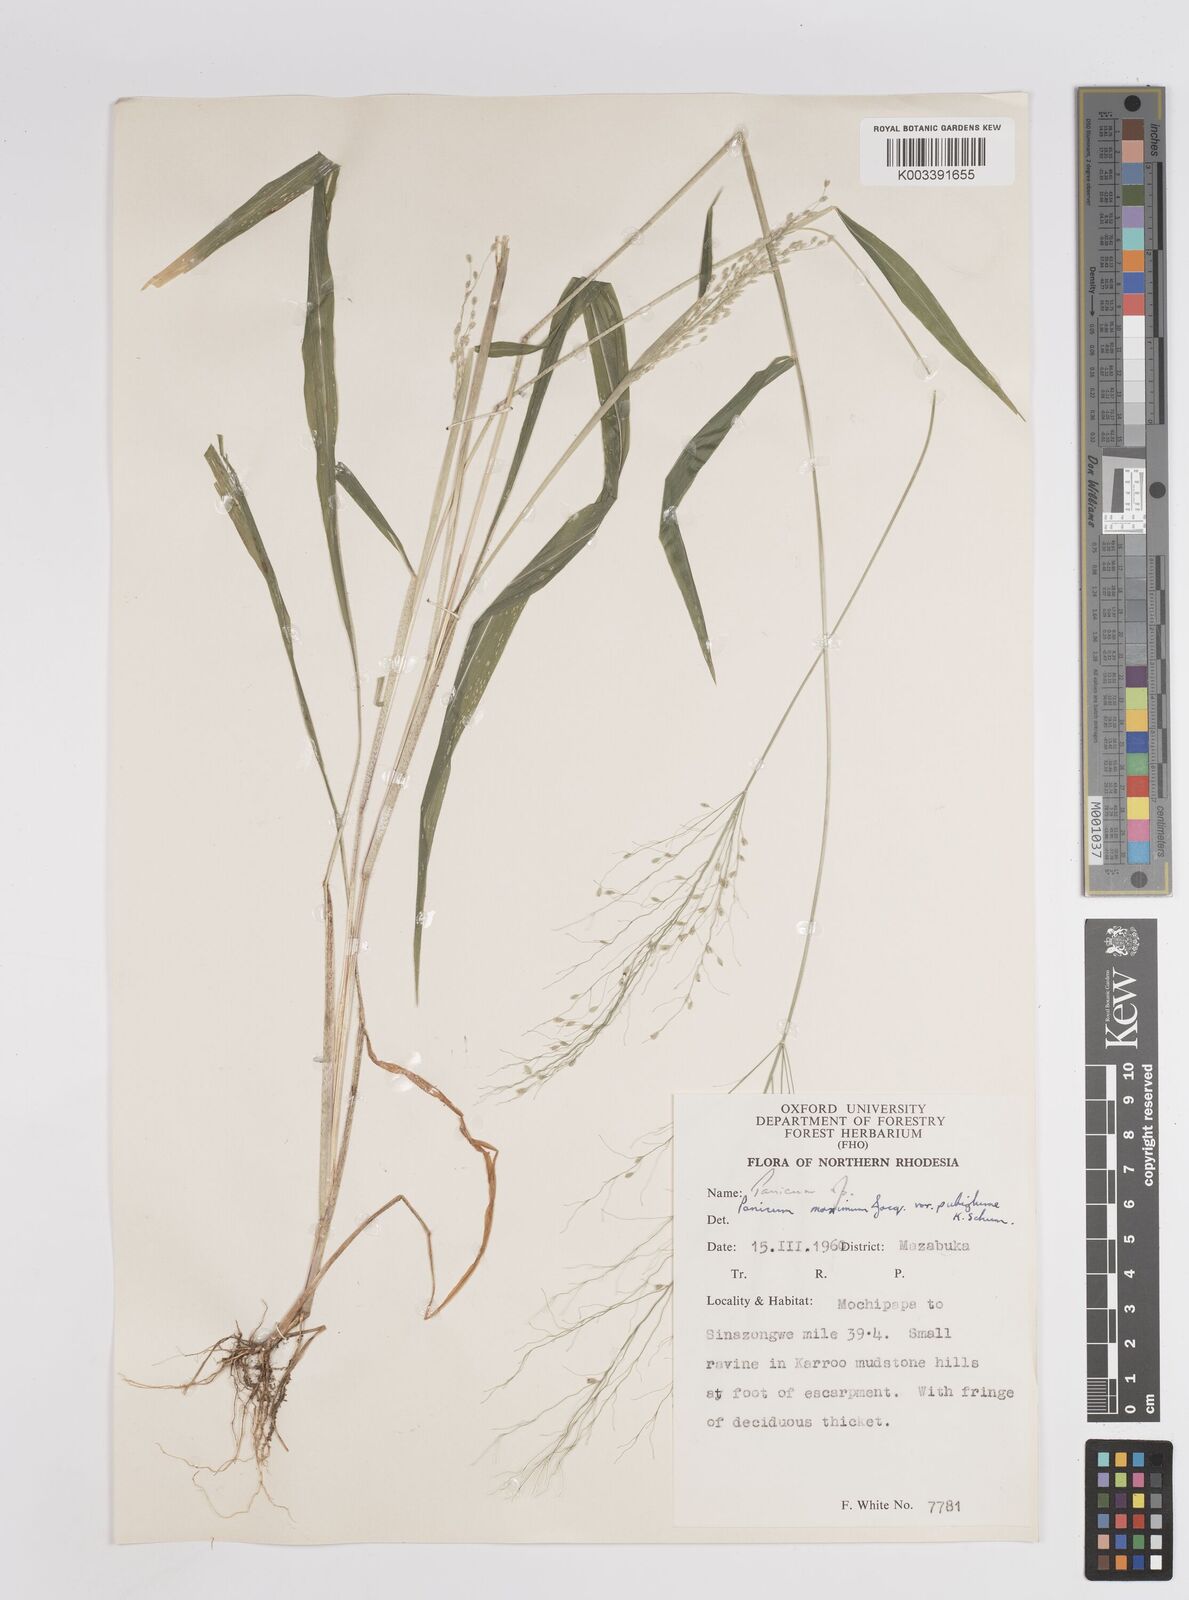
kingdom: Plantae
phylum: Tracheophyta
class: Liliopsida
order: Poales
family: Poaceae
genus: Megathyrsus
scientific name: Megathyrsus maximus
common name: Guineagrass
